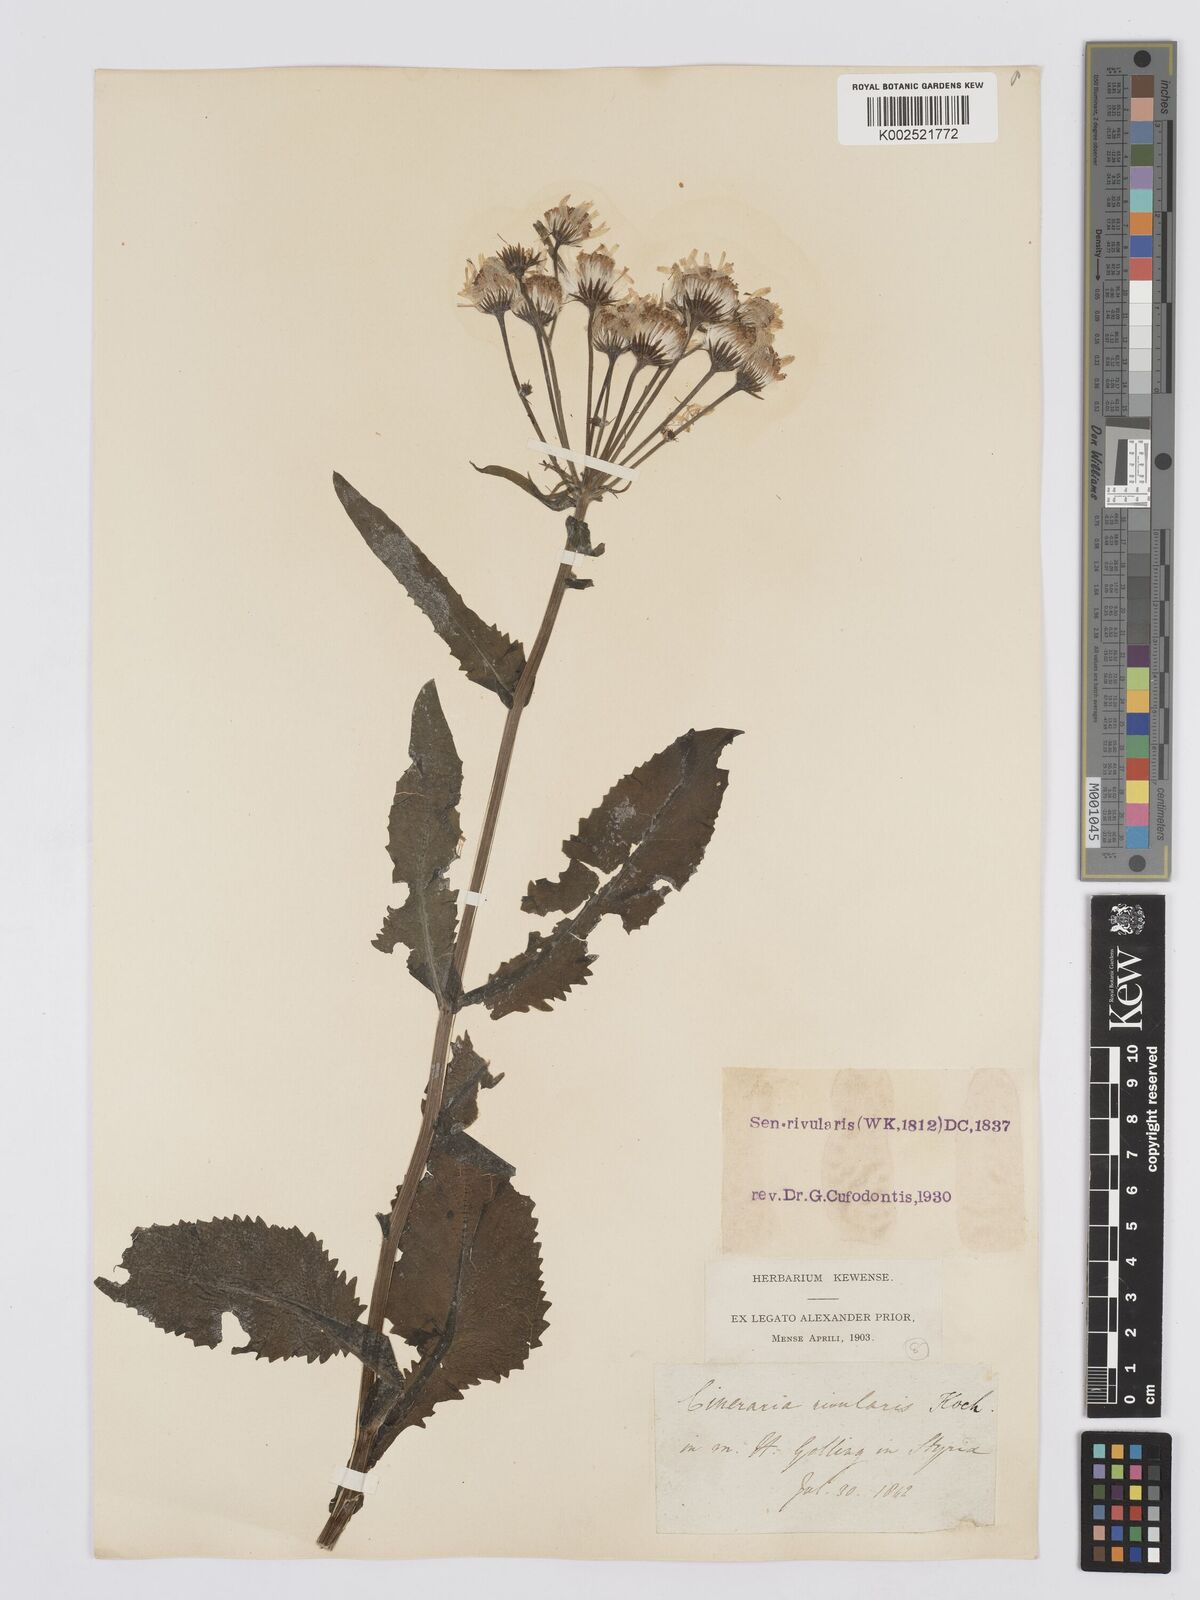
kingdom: Plantae
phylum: Tracheophyta
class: Magnoliopsida
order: Asterales
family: Asteraceae
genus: Tephroseris
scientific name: Tephroseris crispa
